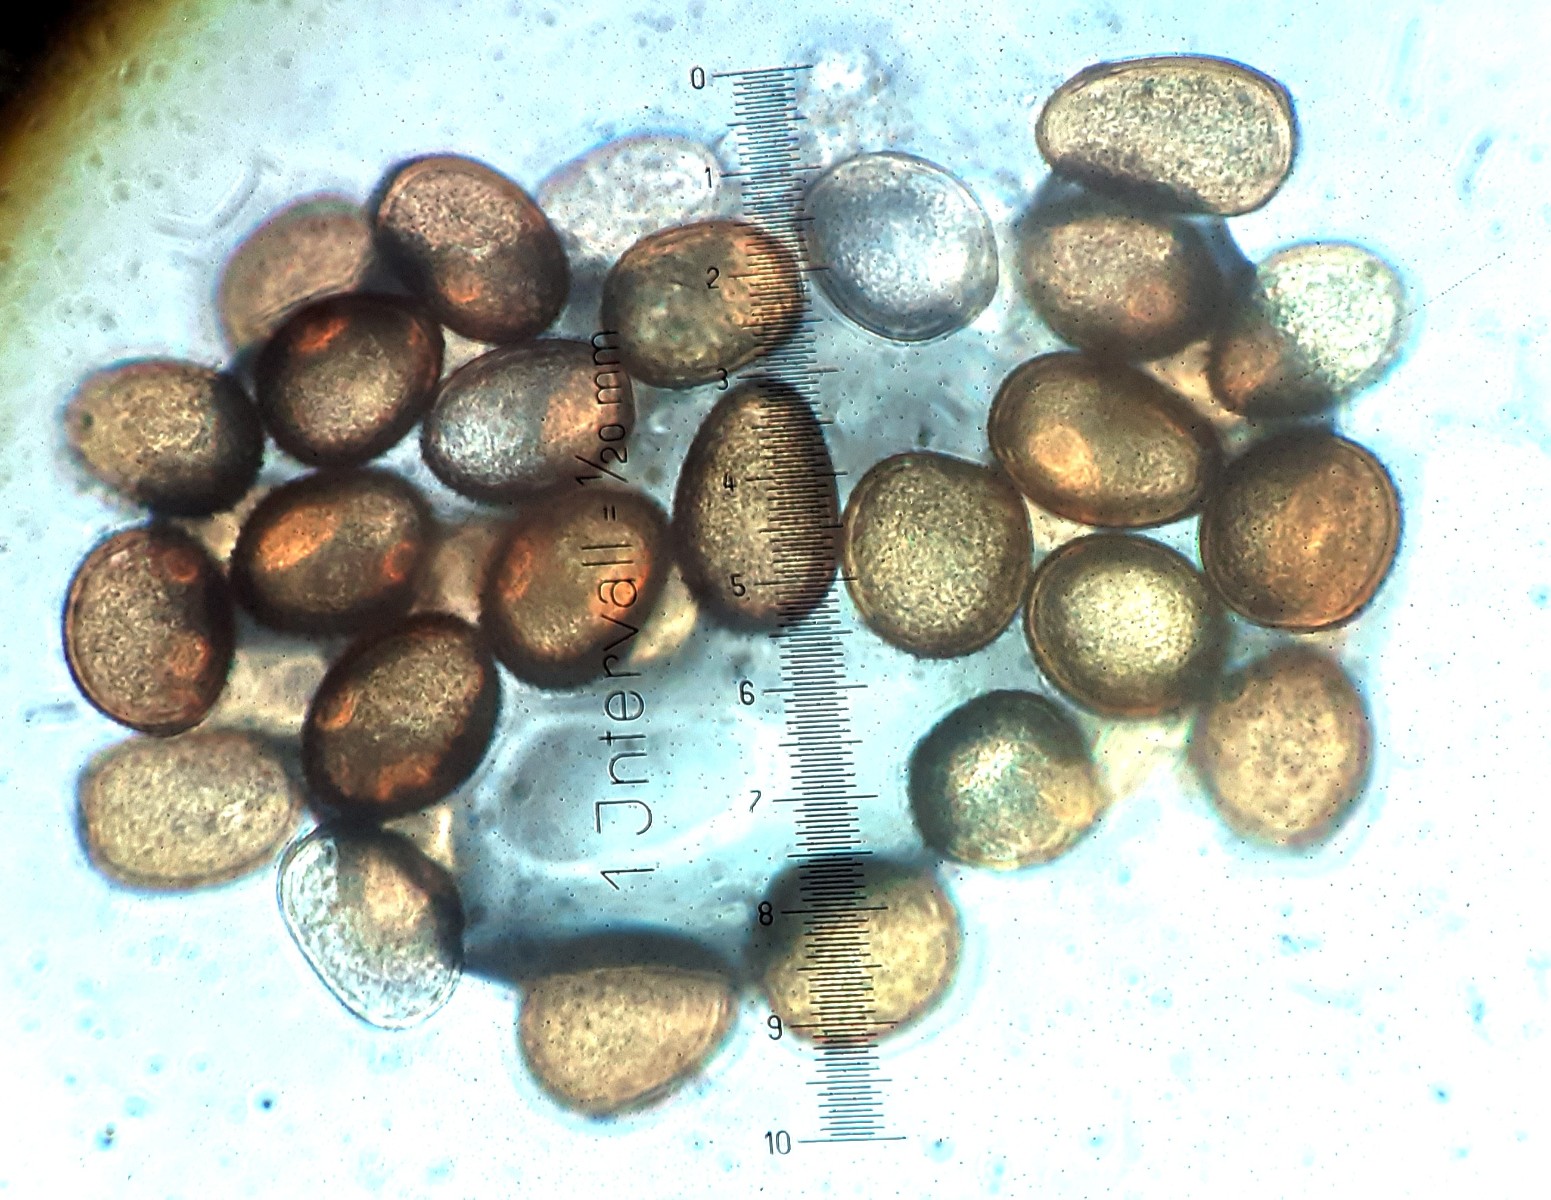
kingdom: Fungi
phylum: Basidiomycota
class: Pucciniomycetes
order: Pucciniales
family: Pucciniaceae
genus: Uromyces
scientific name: Uromyces rumicis
